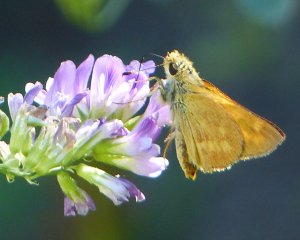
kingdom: Animalia
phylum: Arthropoda
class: Insecta
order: Lepidoptera
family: Hesperiidae
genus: Ochlodes
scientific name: Ochlodes sylvanoides
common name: Woodland Skipper
